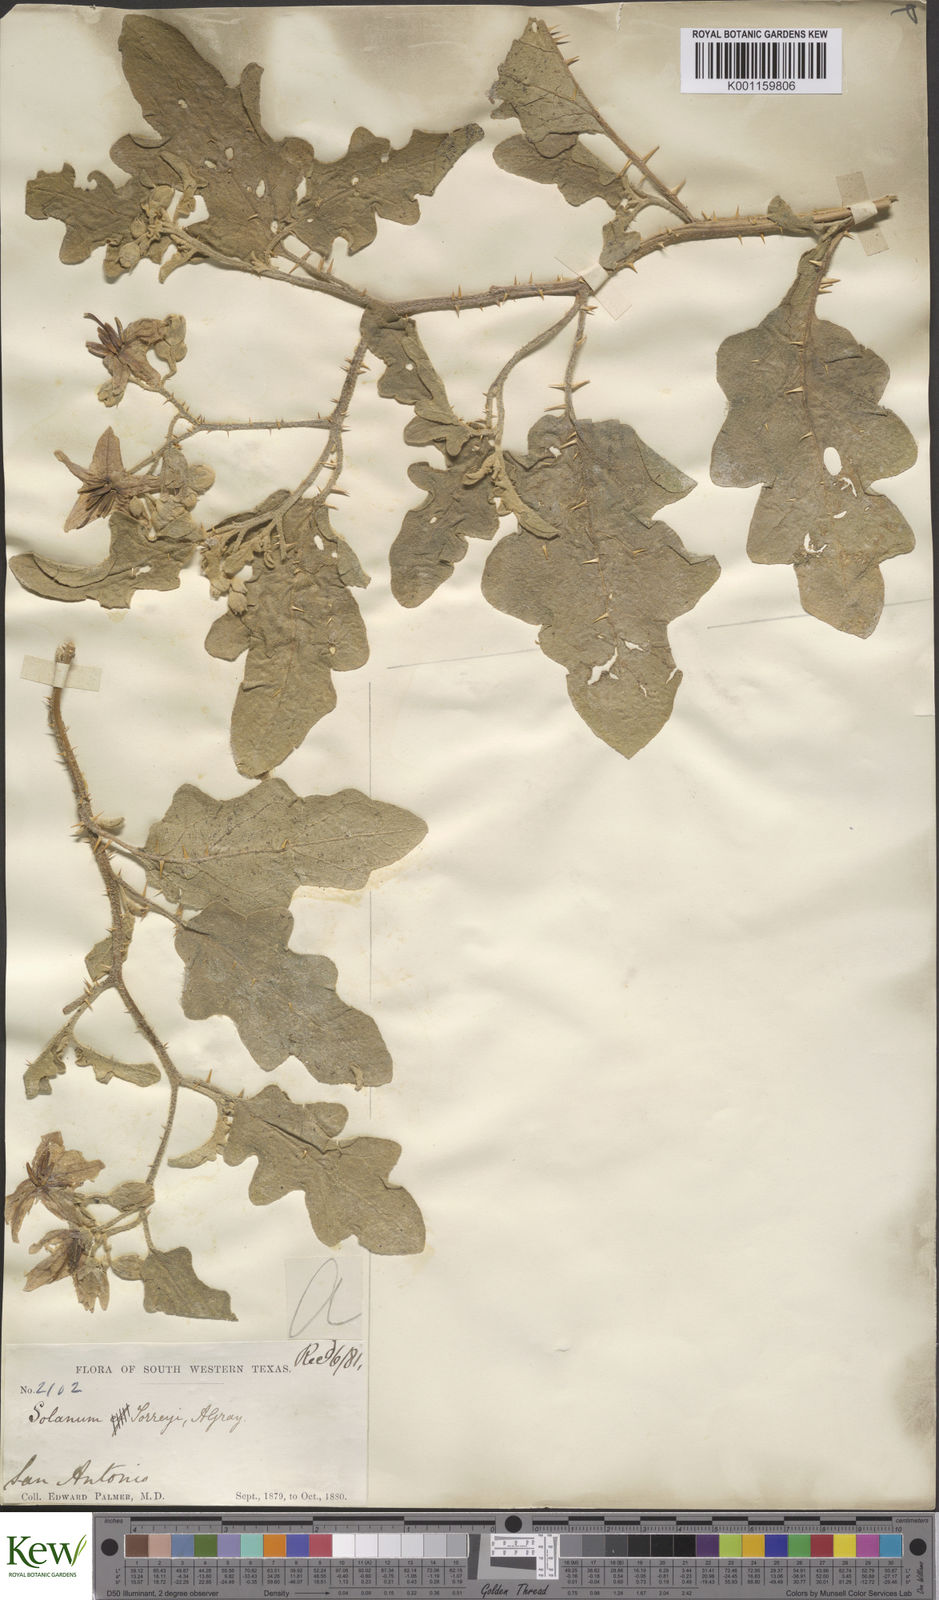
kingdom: Plantae
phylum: Tracheophyta
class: Magnoliopsida
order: Solanales
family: Solanaceae
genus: Solanum
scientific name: Solanum
